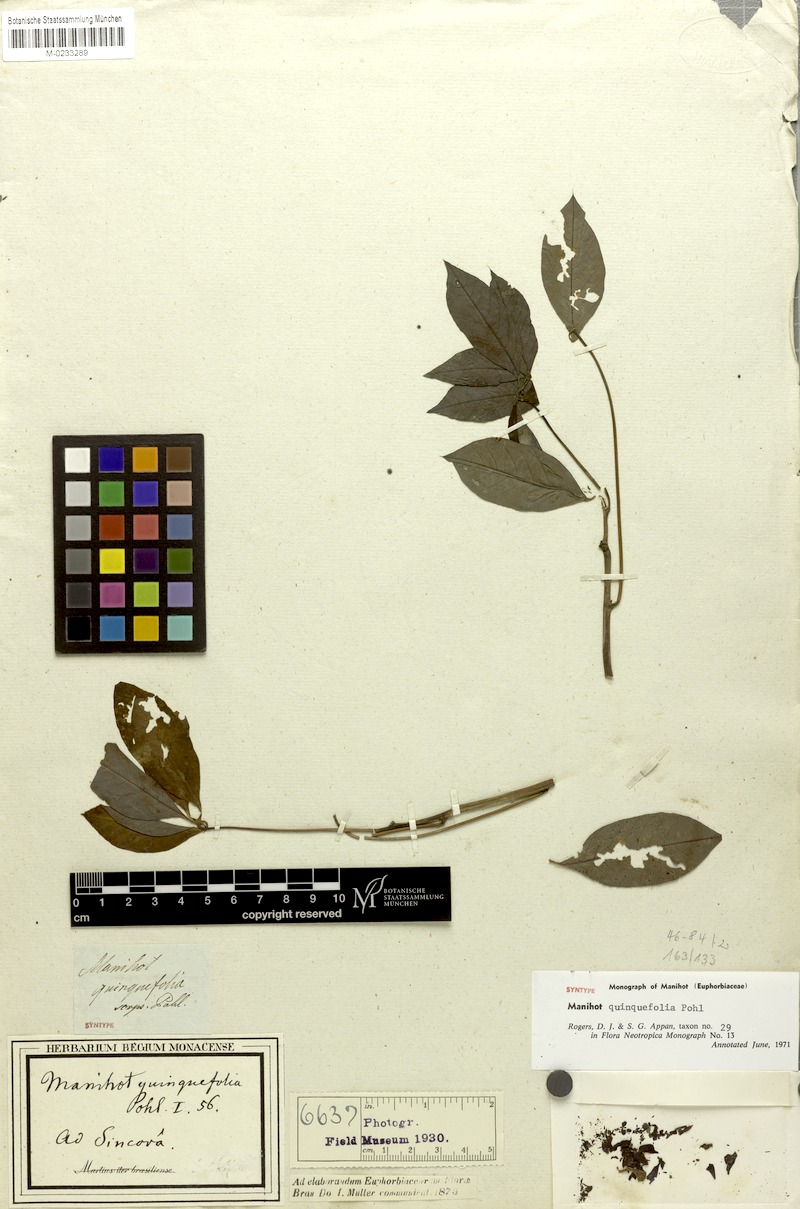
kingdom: Plantae
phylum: Tracheophyta
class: Magnoliopsida
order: Malpighiales
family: Euphorbiaceae
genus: Manihot
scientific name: Manihot quinquefolia
